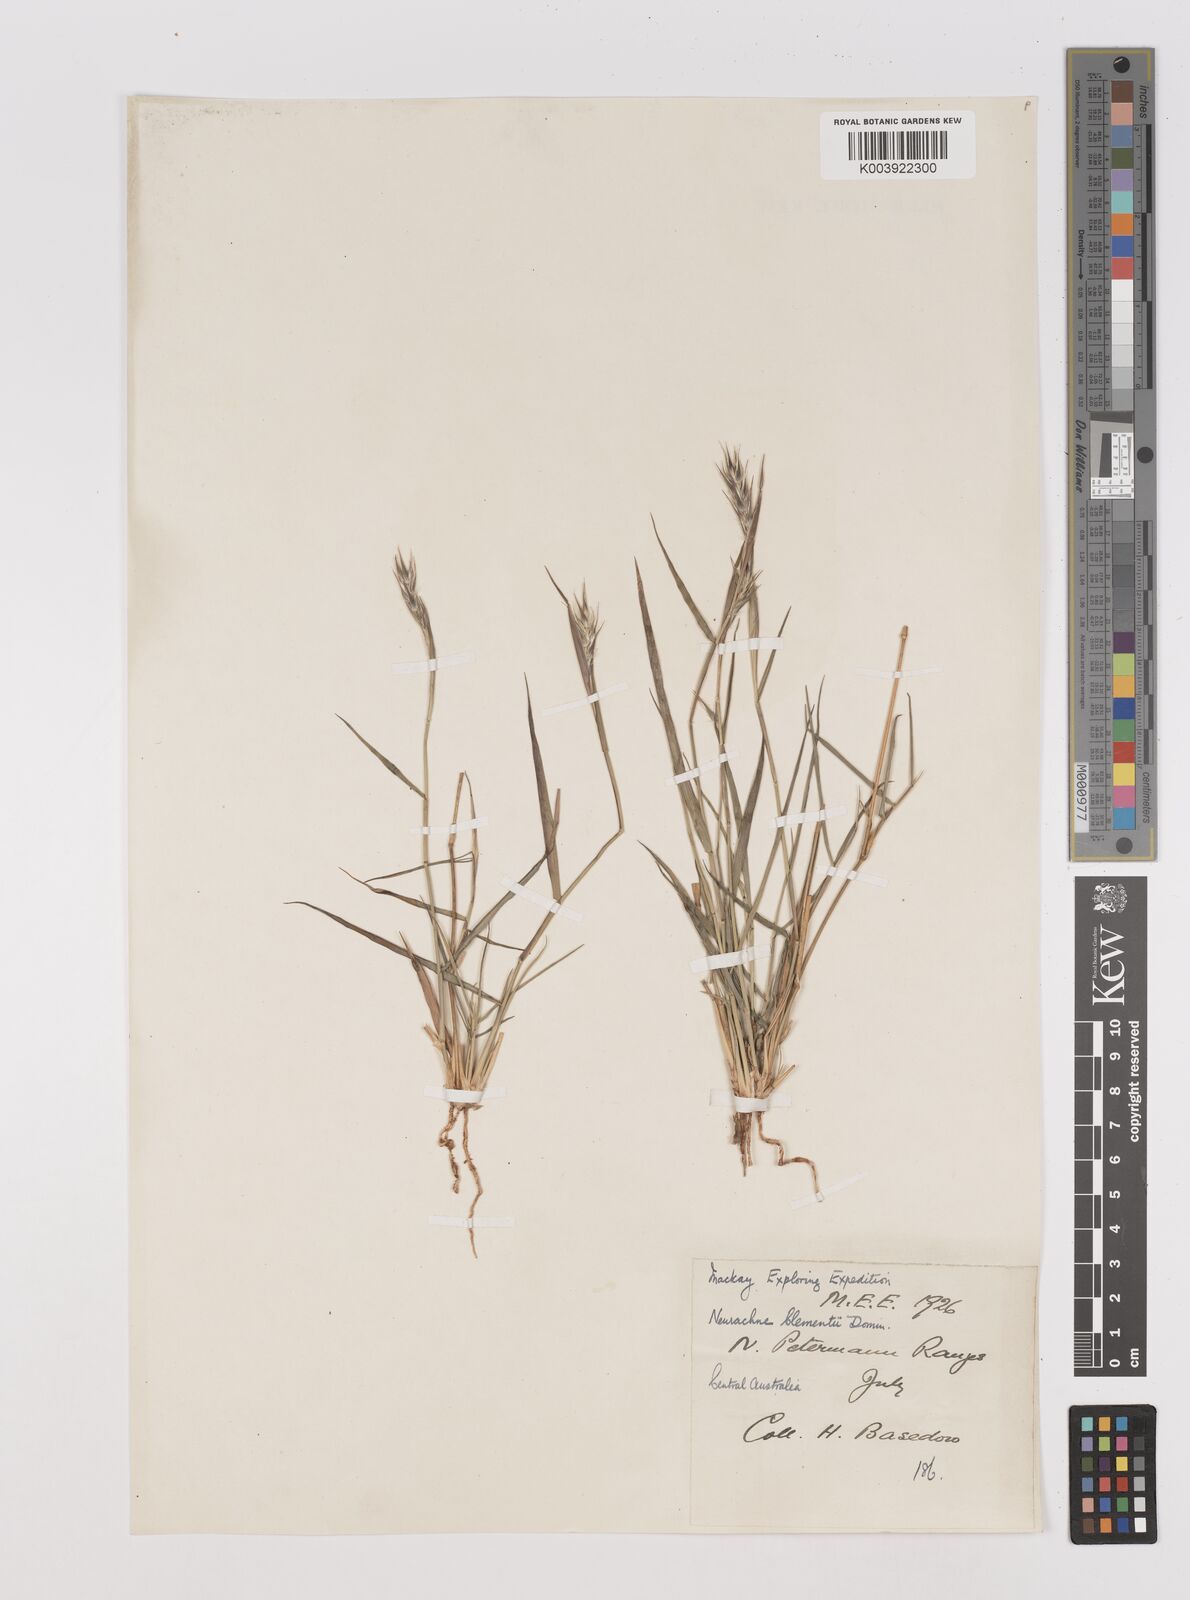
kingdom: Plantae
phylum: Tracheophyta
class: Liliopsida
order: Poales
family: Poaceae
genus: Neurachne
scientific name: Neurachne muelleri
